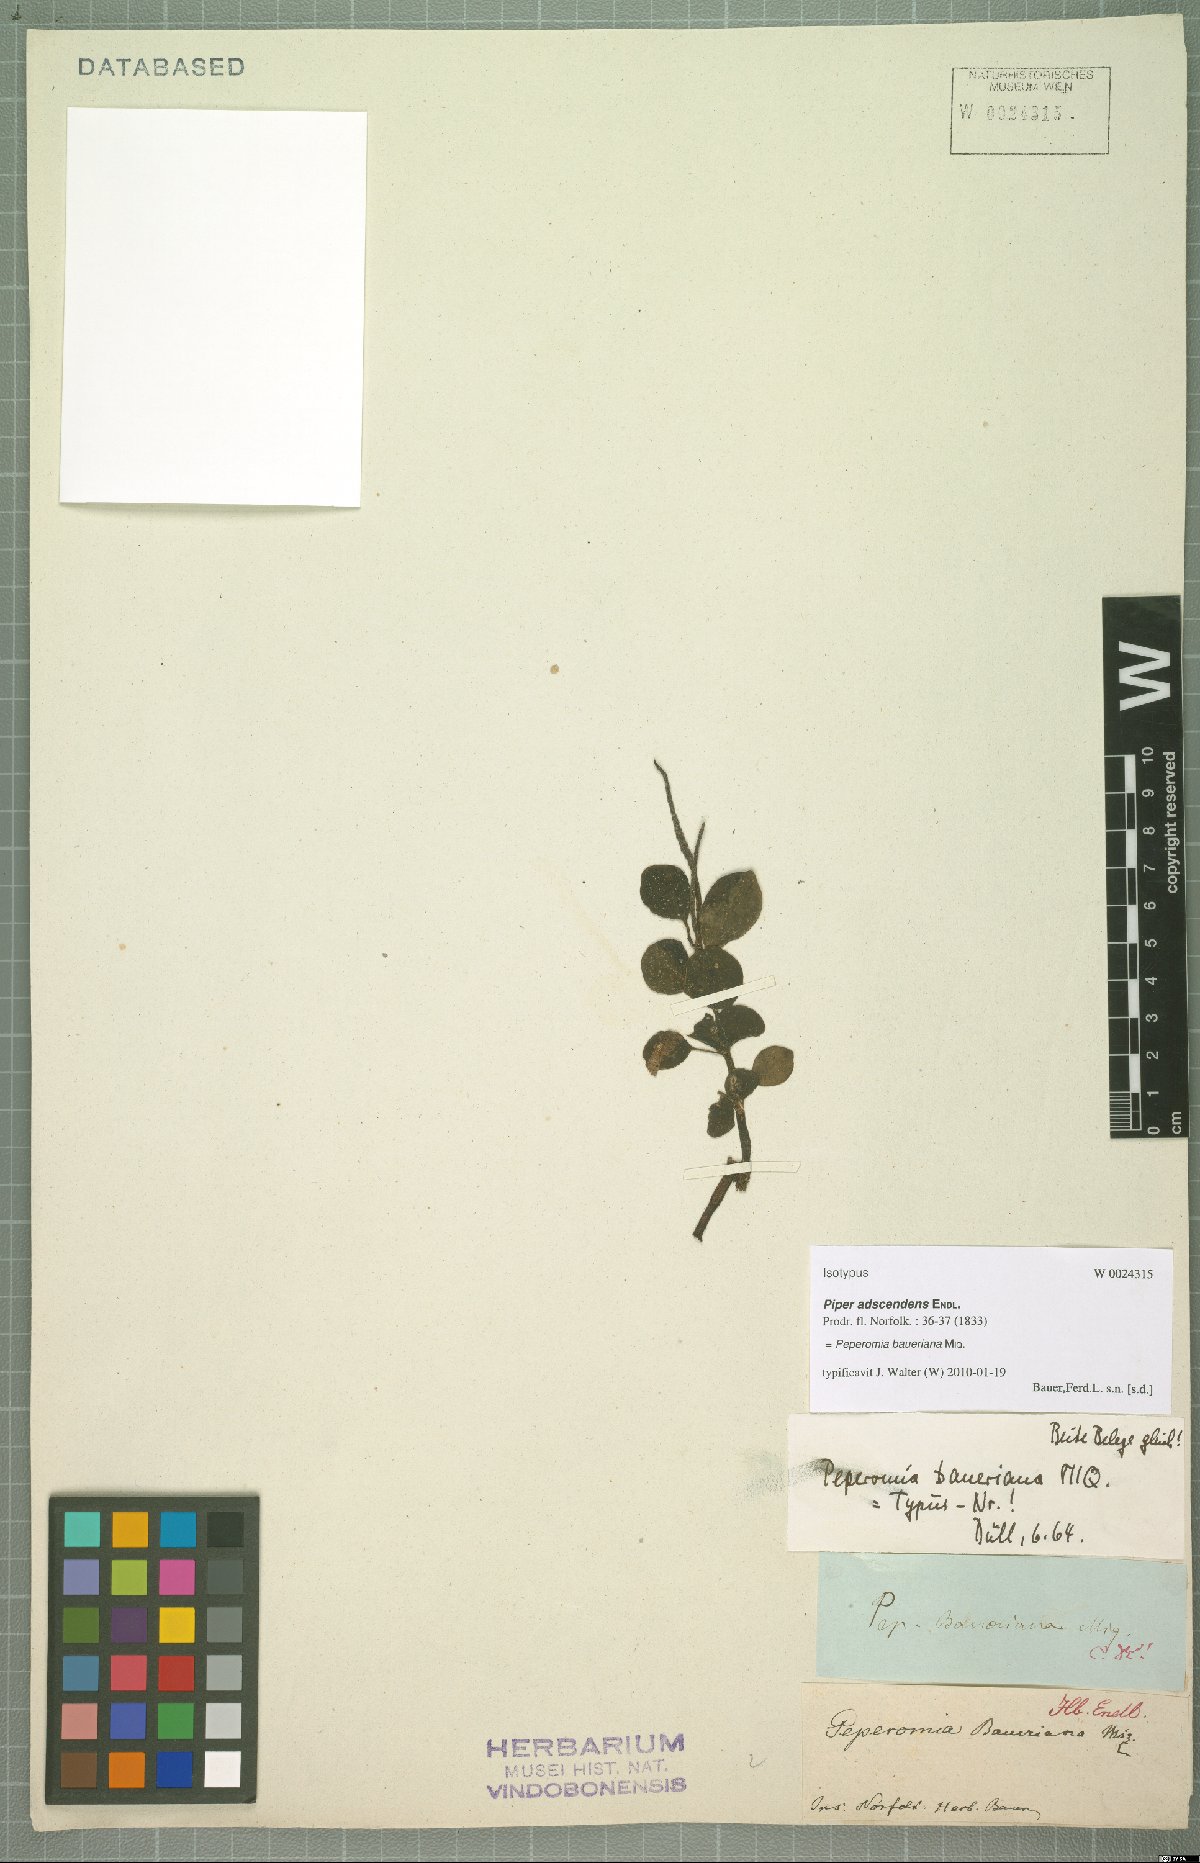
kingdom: Plantae
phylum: Tracheophyta
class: Magnoliopsida
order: Piperales
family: Piperaceae
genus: Peperomia
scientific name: Peperomia baueriana
